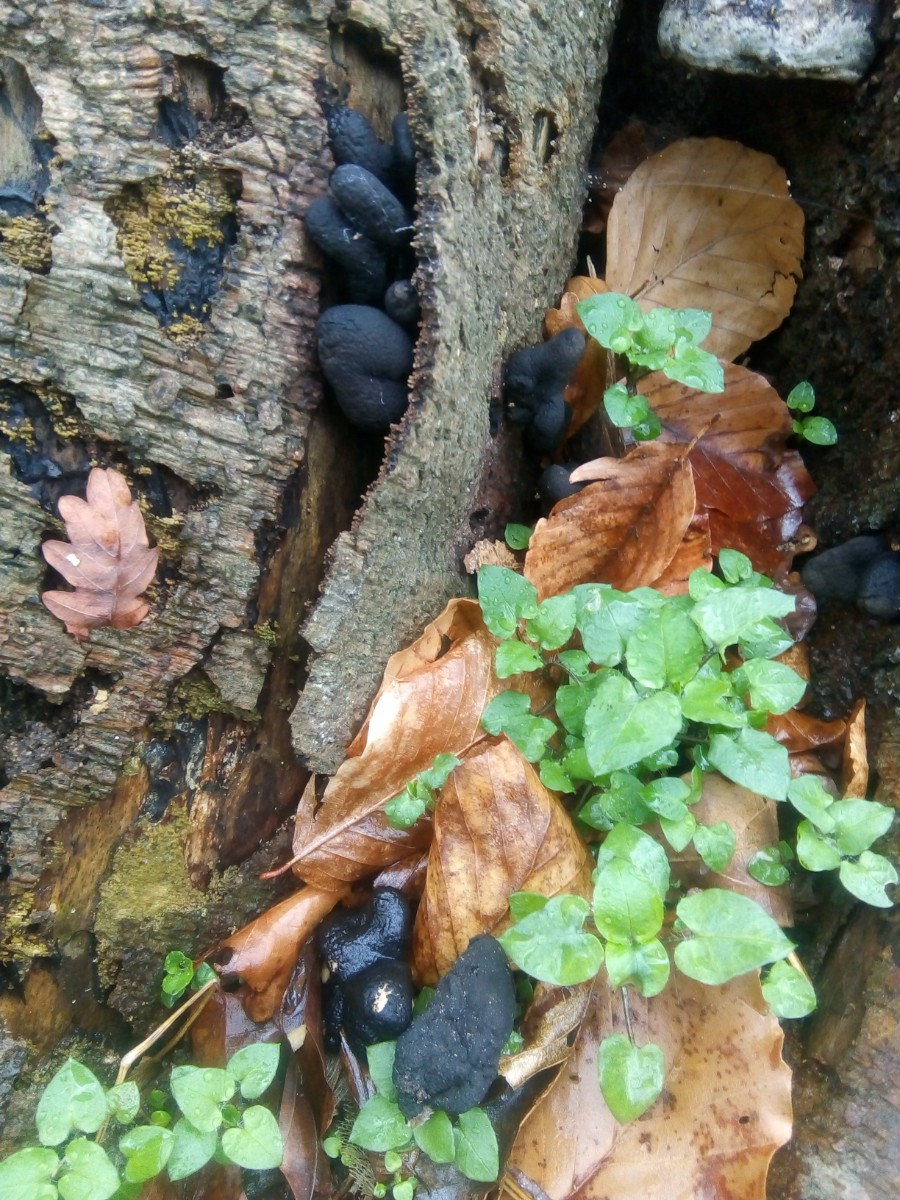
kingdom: Fungi
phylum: Ascomycota
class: Sordariomycetes
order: Xylariales
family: Xylariaceae
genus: Xylaria
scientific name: Xylaria polymorpha
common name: kølle-stødsvamp
